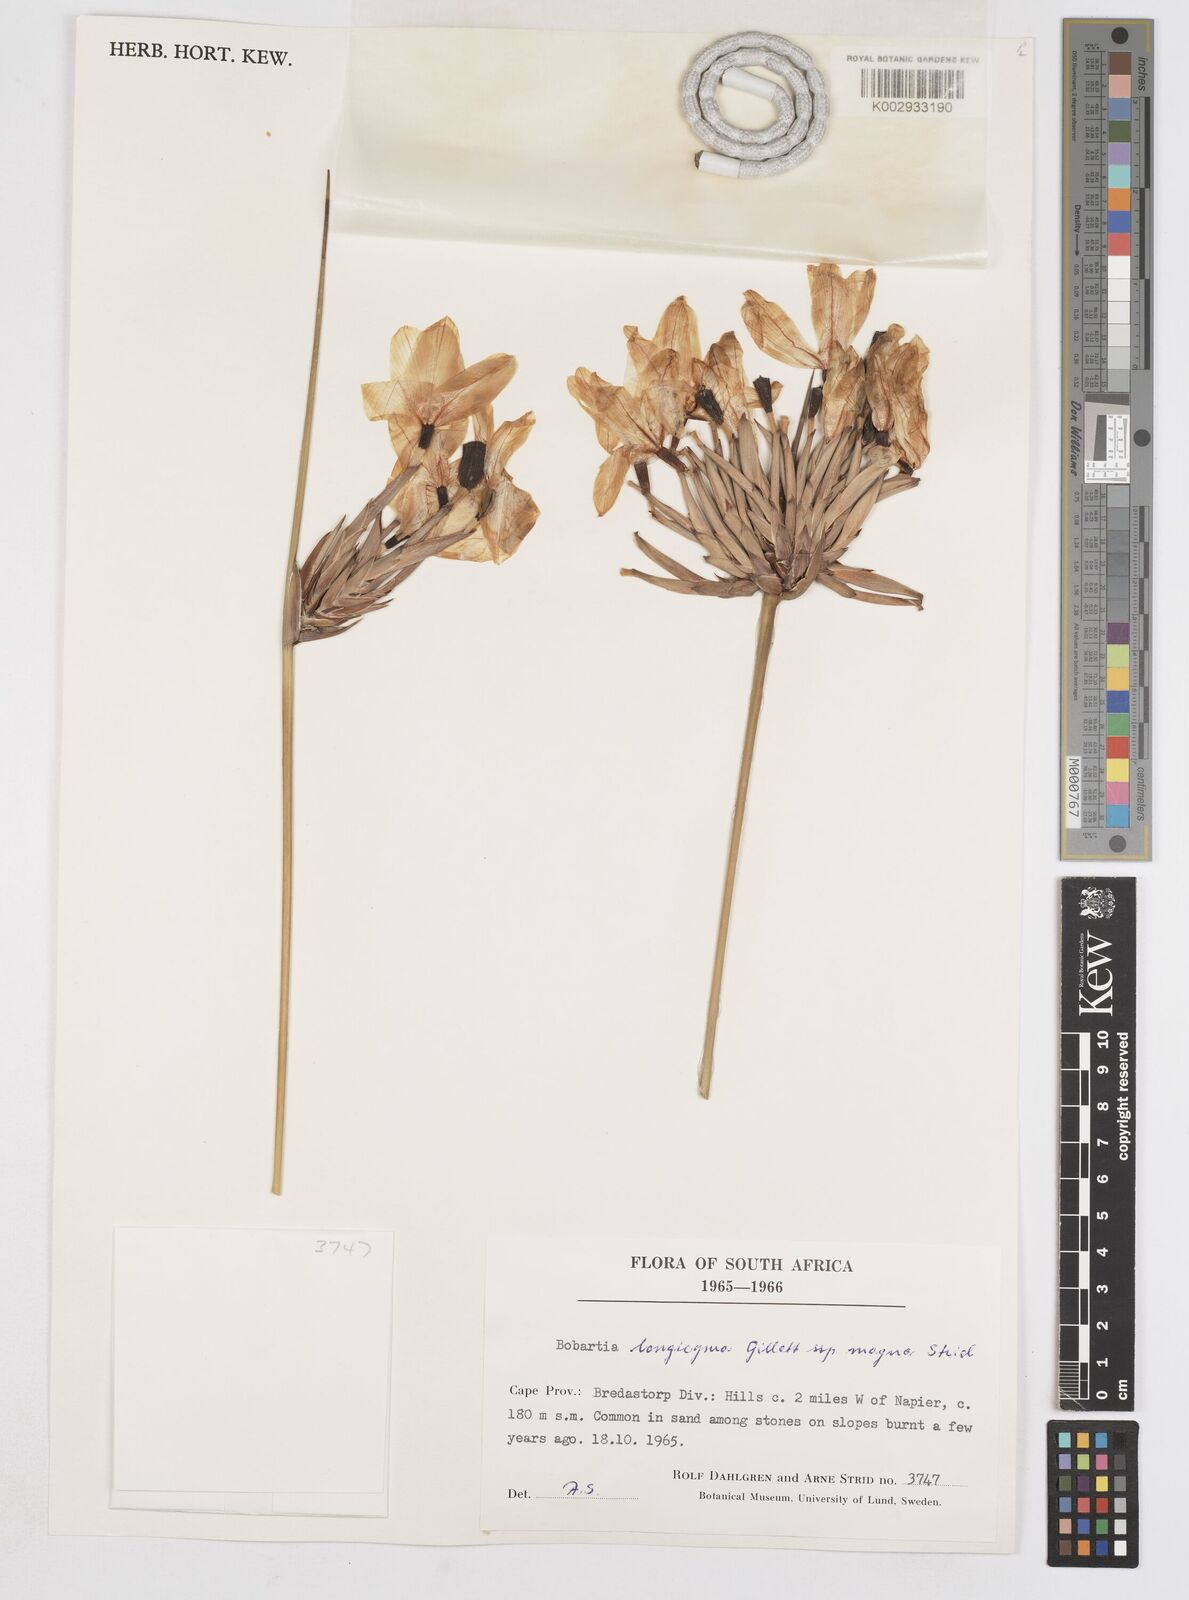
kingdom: Plantae
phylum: Tracheophyta
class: Liliopsida
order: Asparagales
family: Iridaceae
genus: Bobartia
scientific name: Bobartia longicyma
